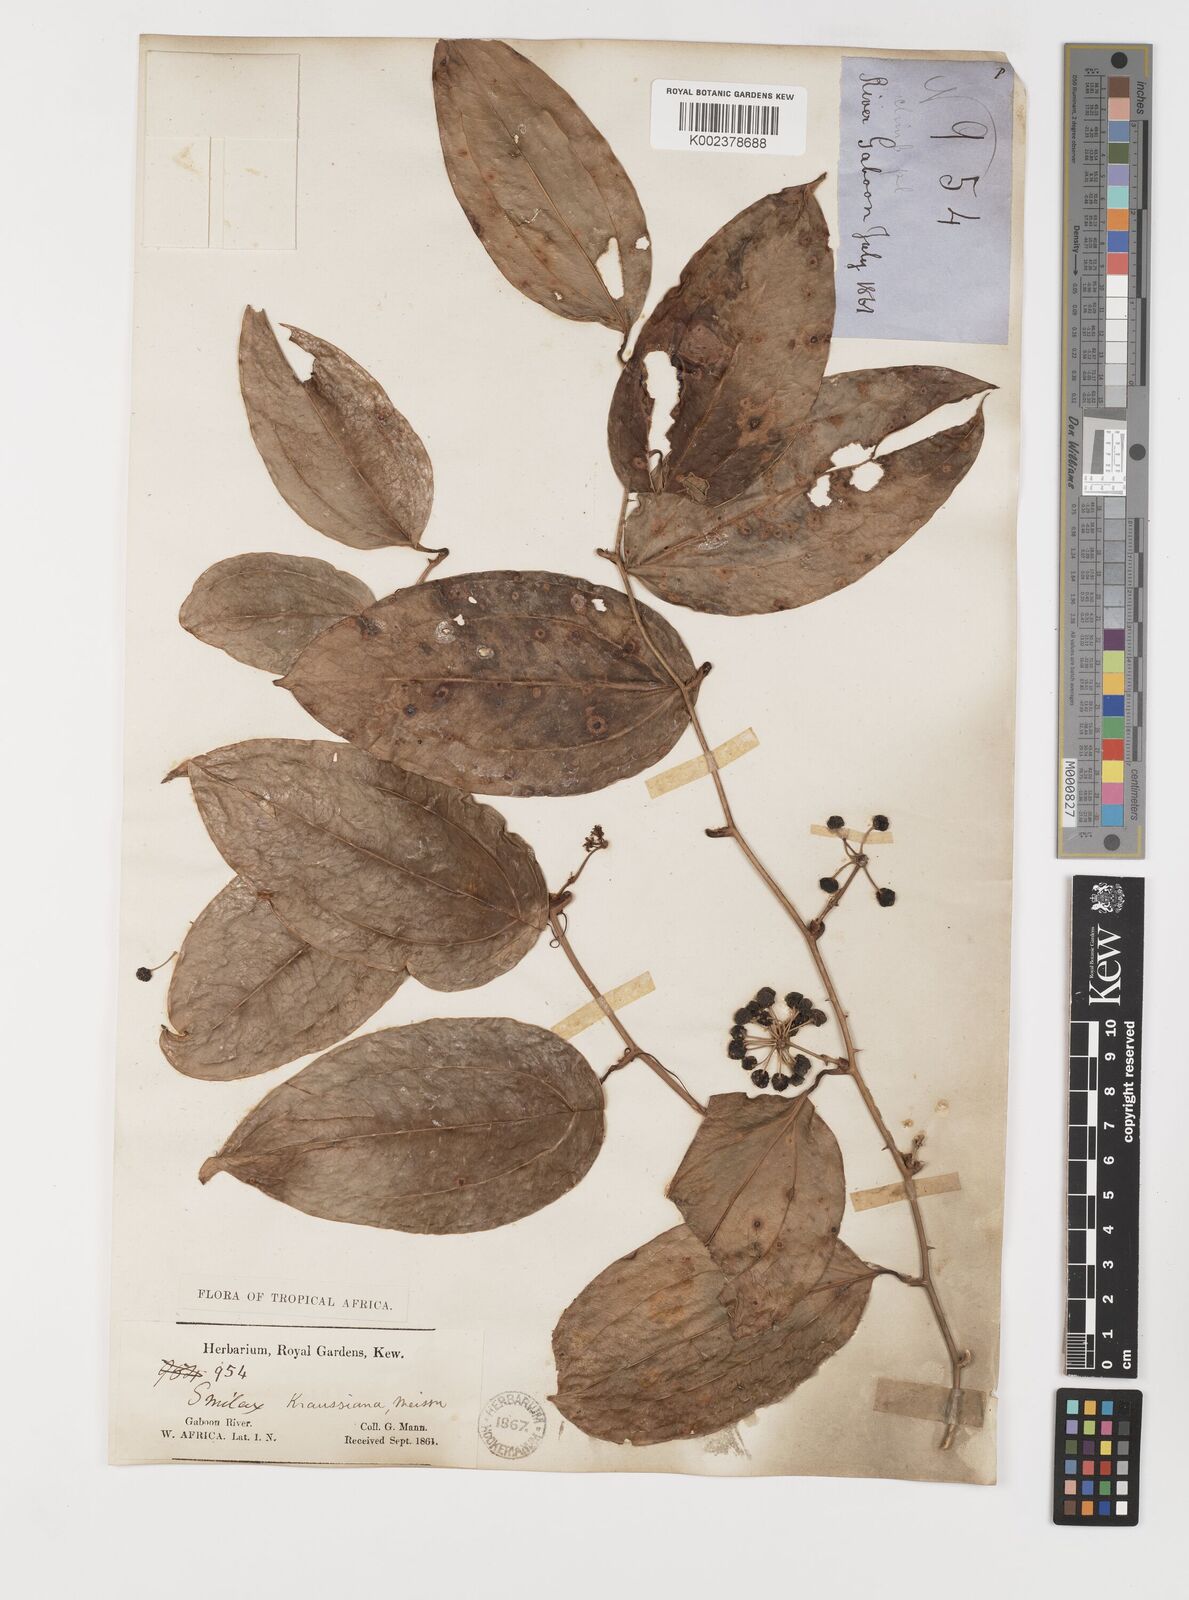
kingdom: Plantae
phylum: Tracheophyta
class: Liliopsida
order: Liliales
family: Smilacaceae
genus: Smilax
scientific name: Smilax anceps
